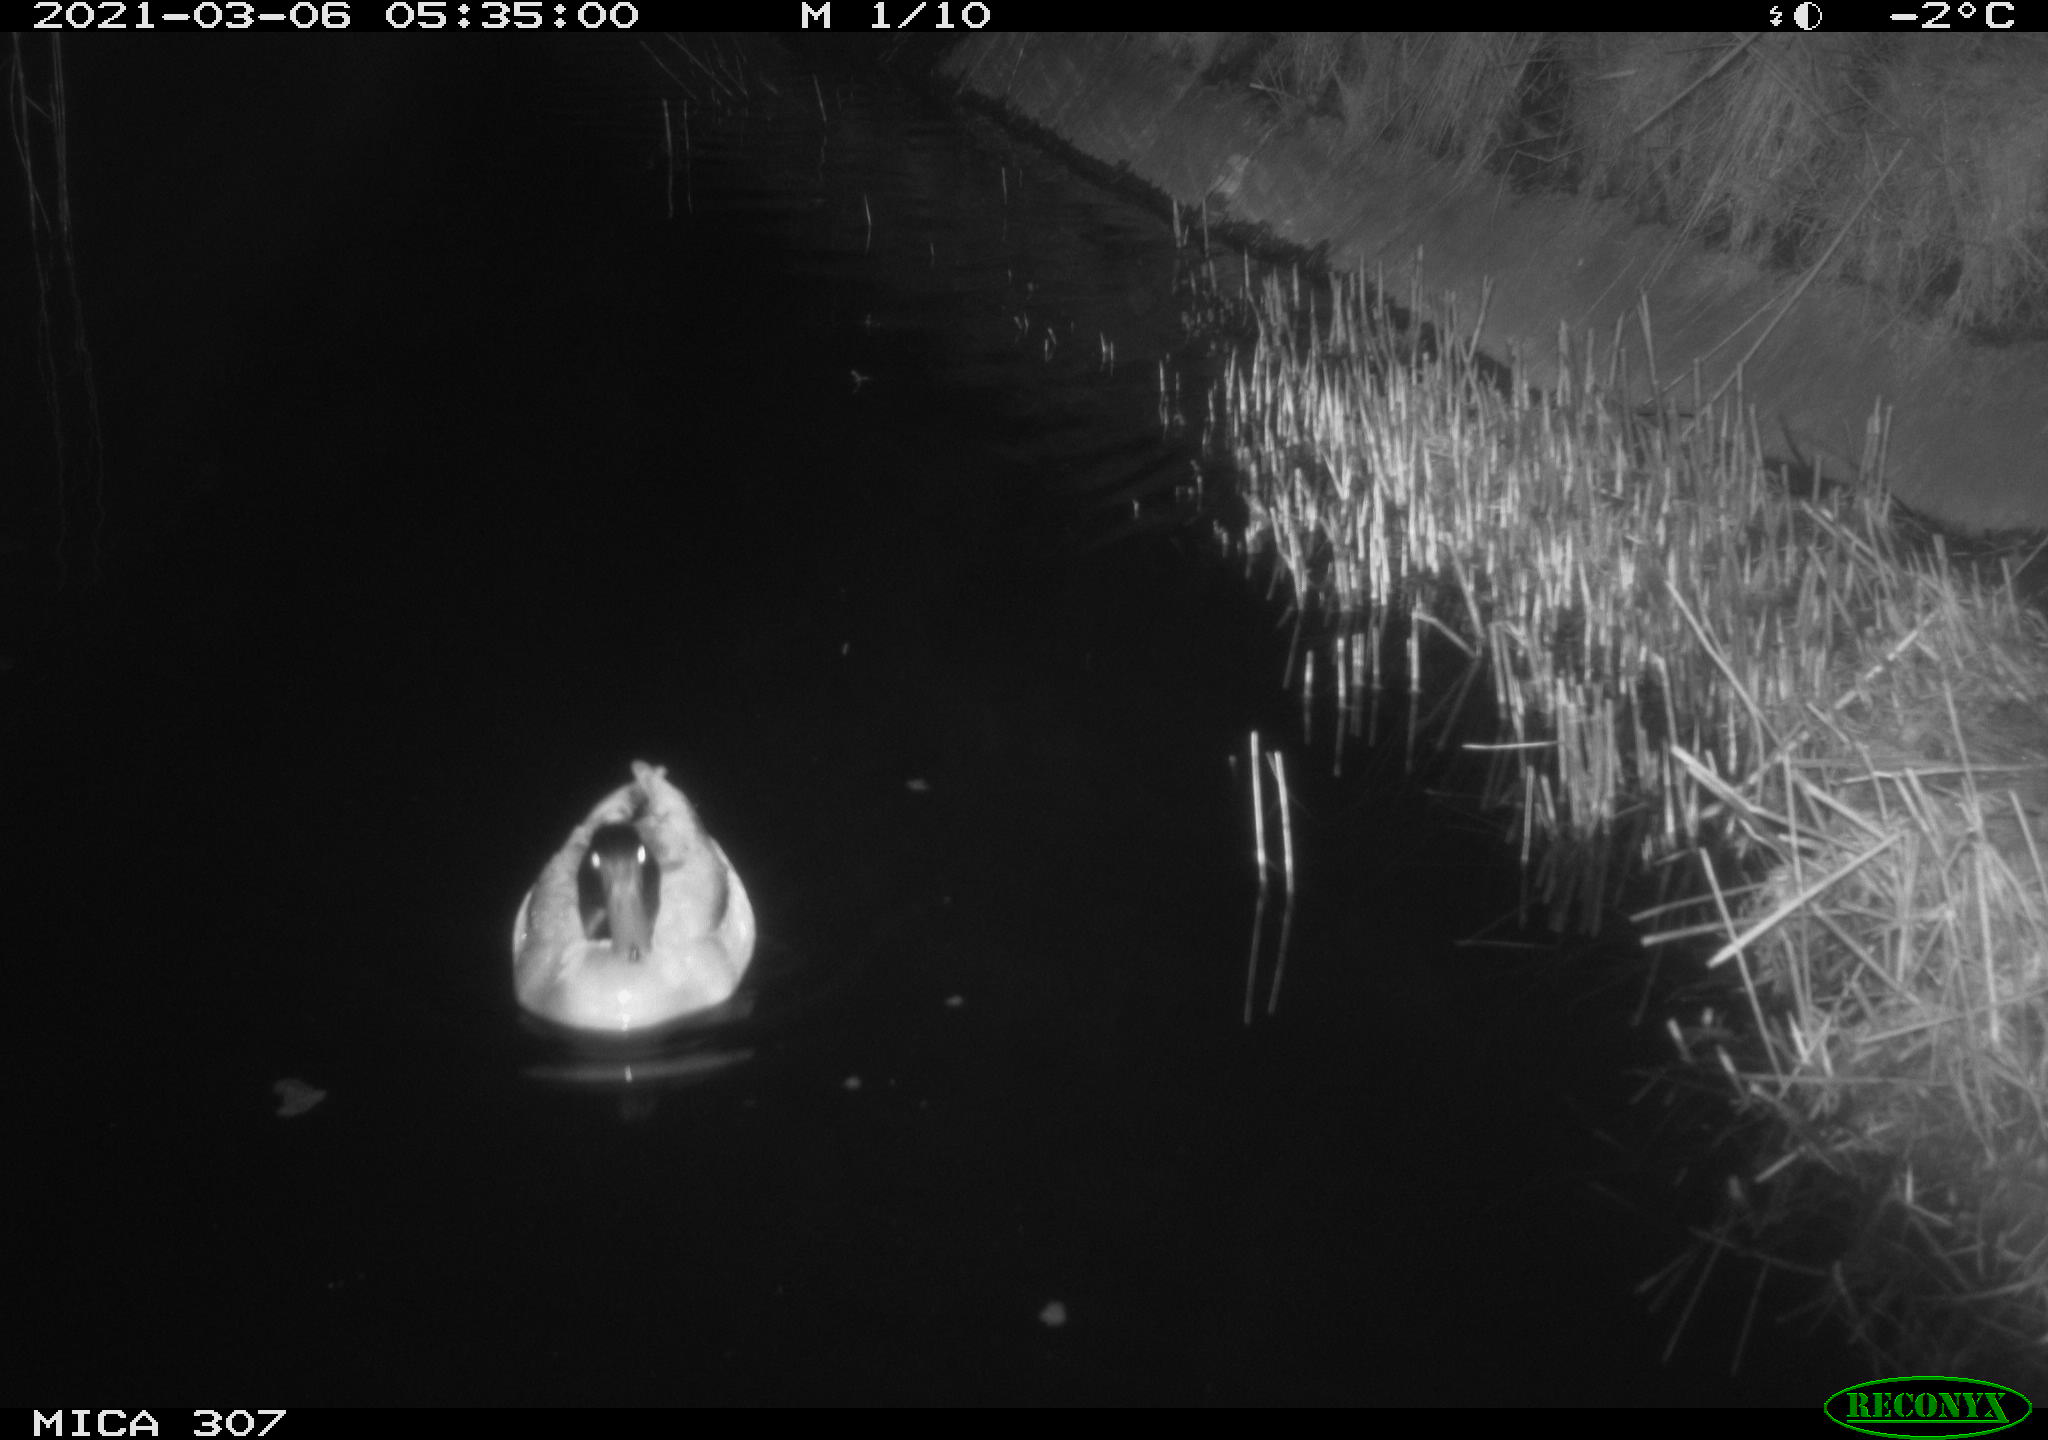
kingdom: Animalia
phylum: Chordata
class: Aves
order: Anseriformes
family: Anatidae
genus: Anas
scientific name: Anas platyrhynchos
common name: Mallard
